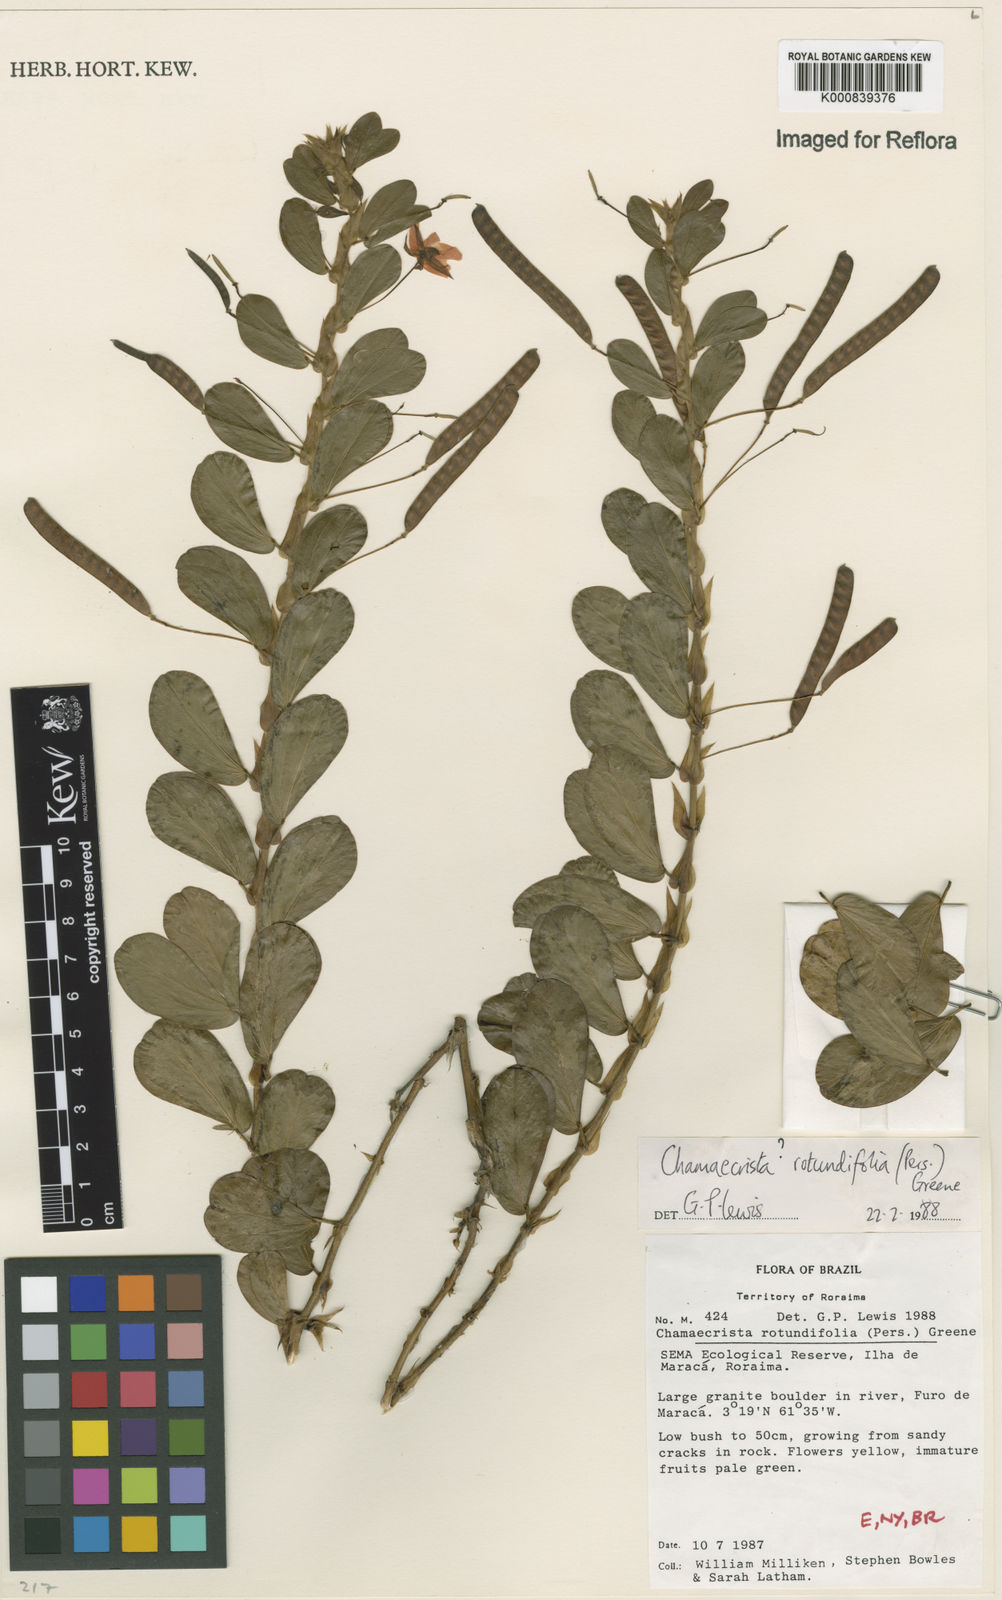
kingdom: Plantae
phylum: Tracheophyta
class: Magnoliopsida
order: Fabales
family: Fabaceae
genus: Chamaecrista
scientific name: Chamaecrista
